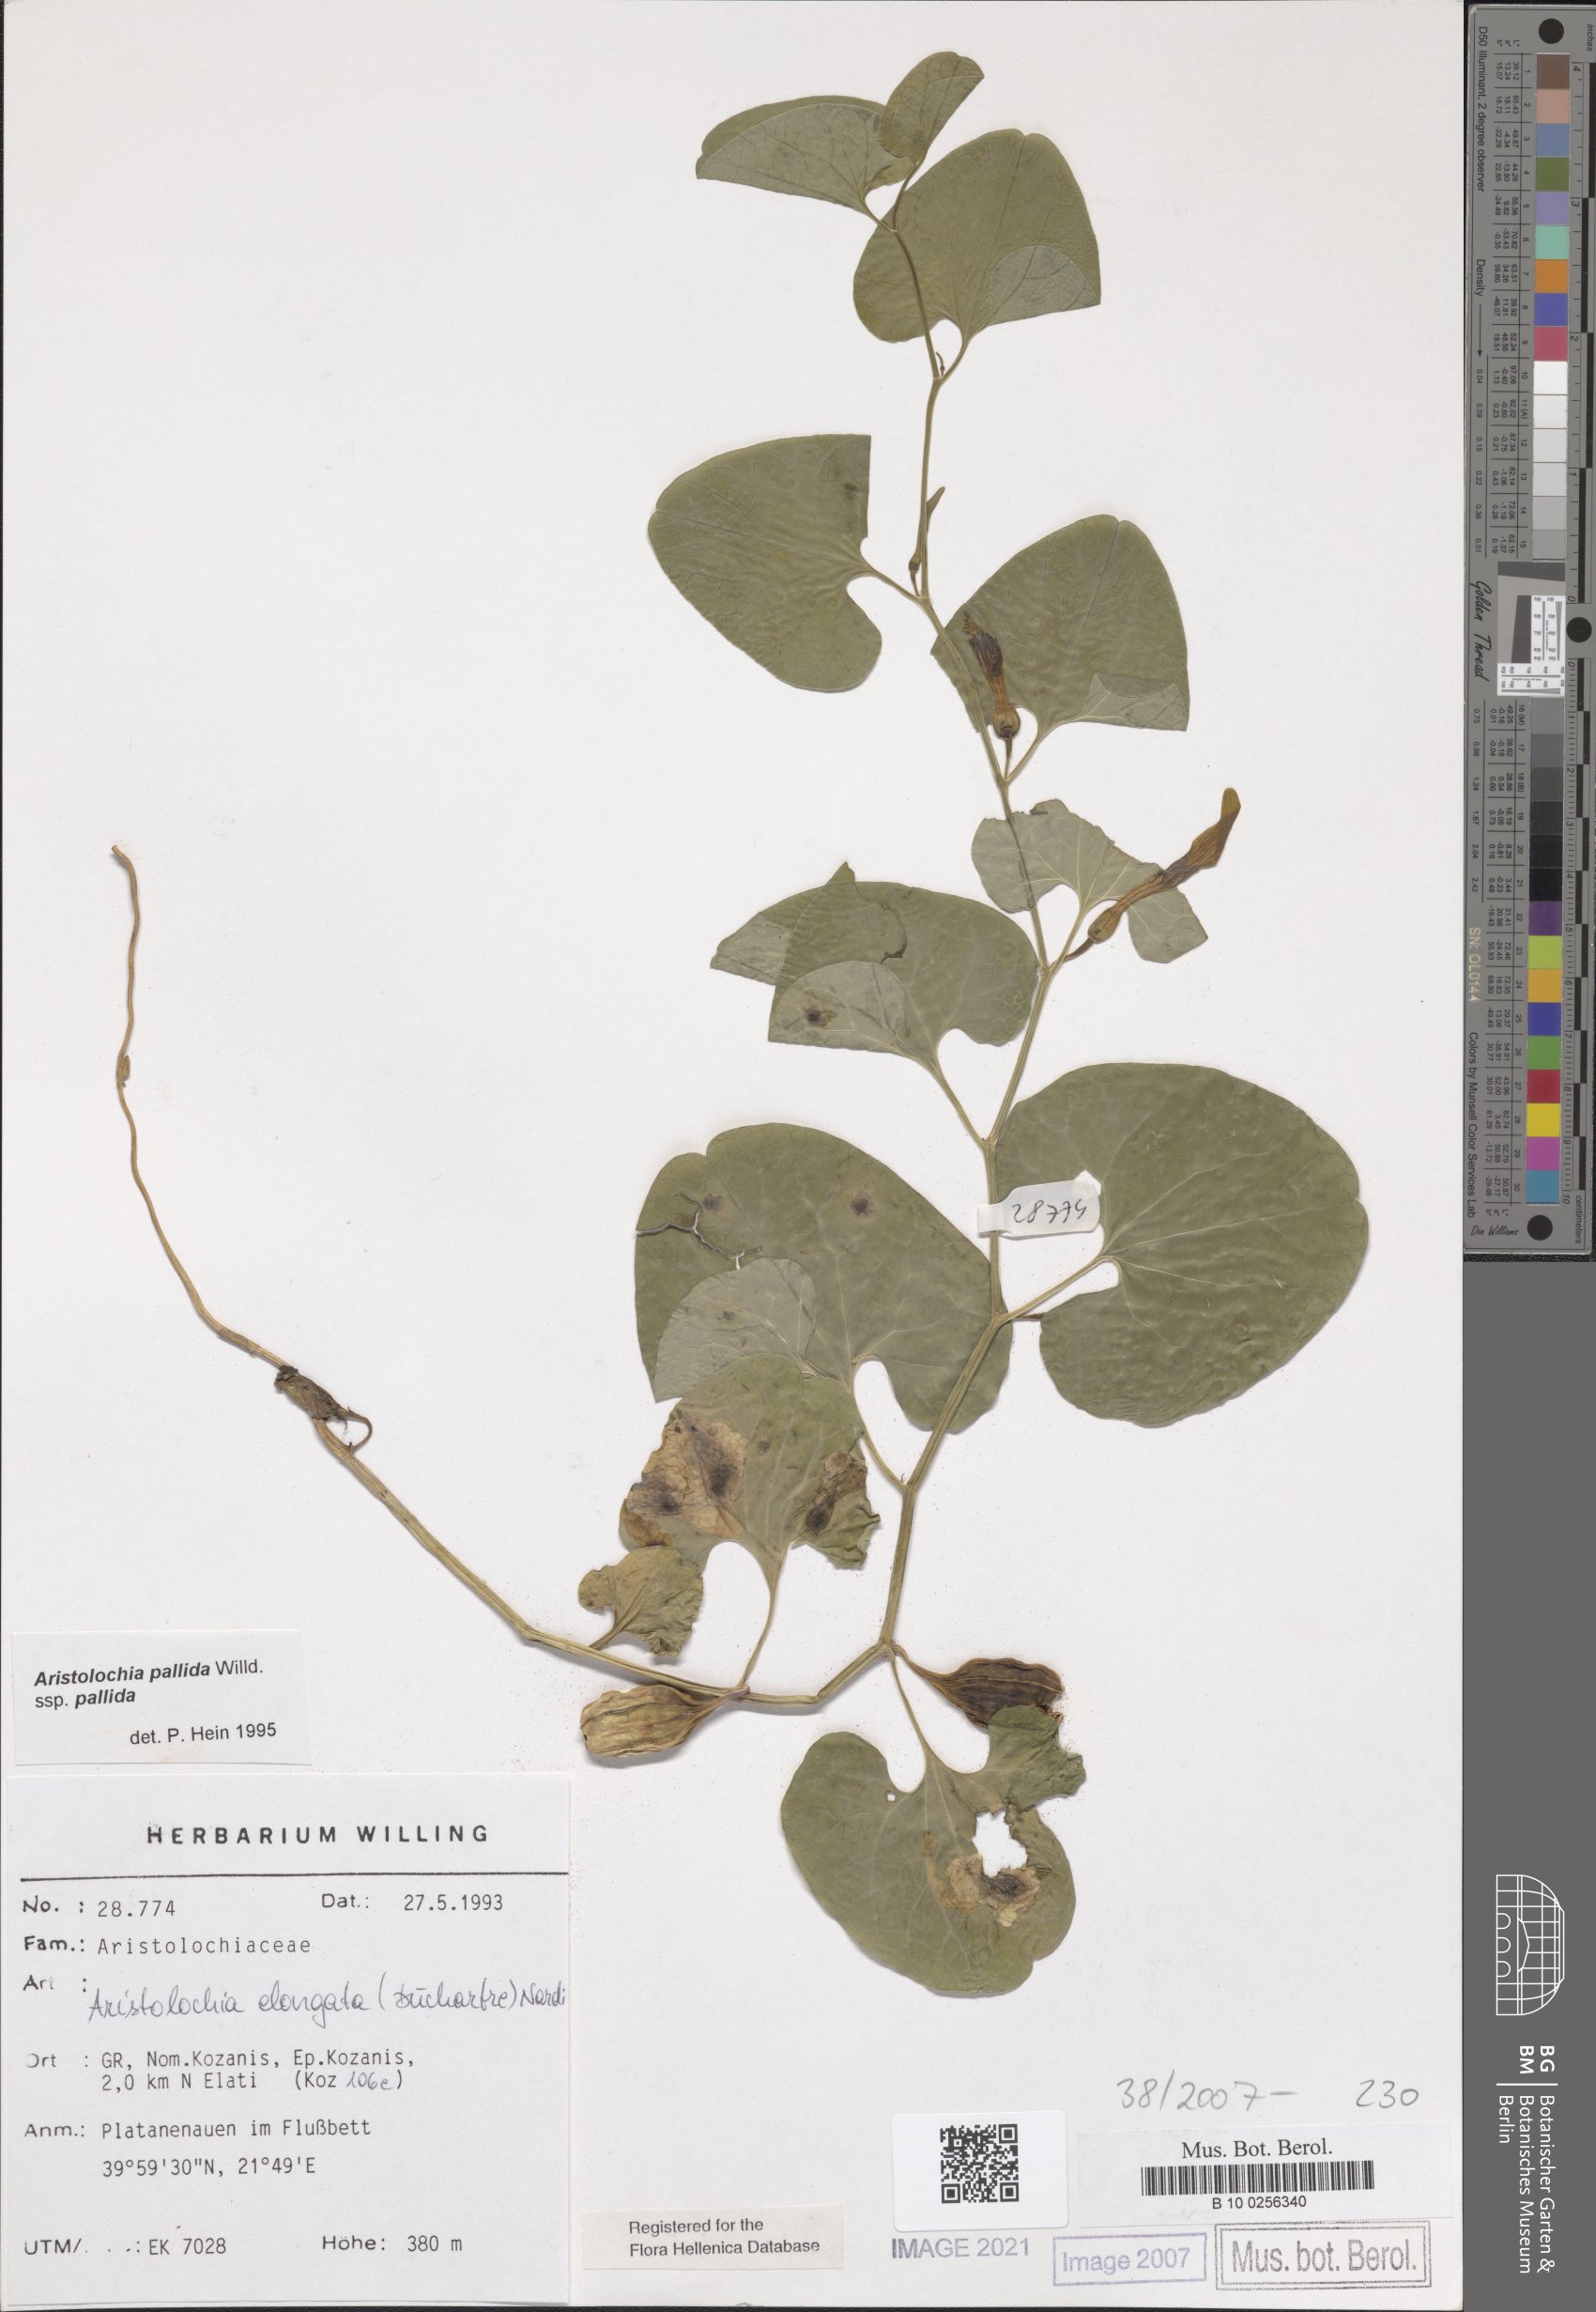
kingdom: Plantae
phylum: Tracheophyta
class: Magnoliopsida
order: Piperales
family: Aristolochiaceae
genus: Aristolochia
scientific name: Aristolochia nardiana
